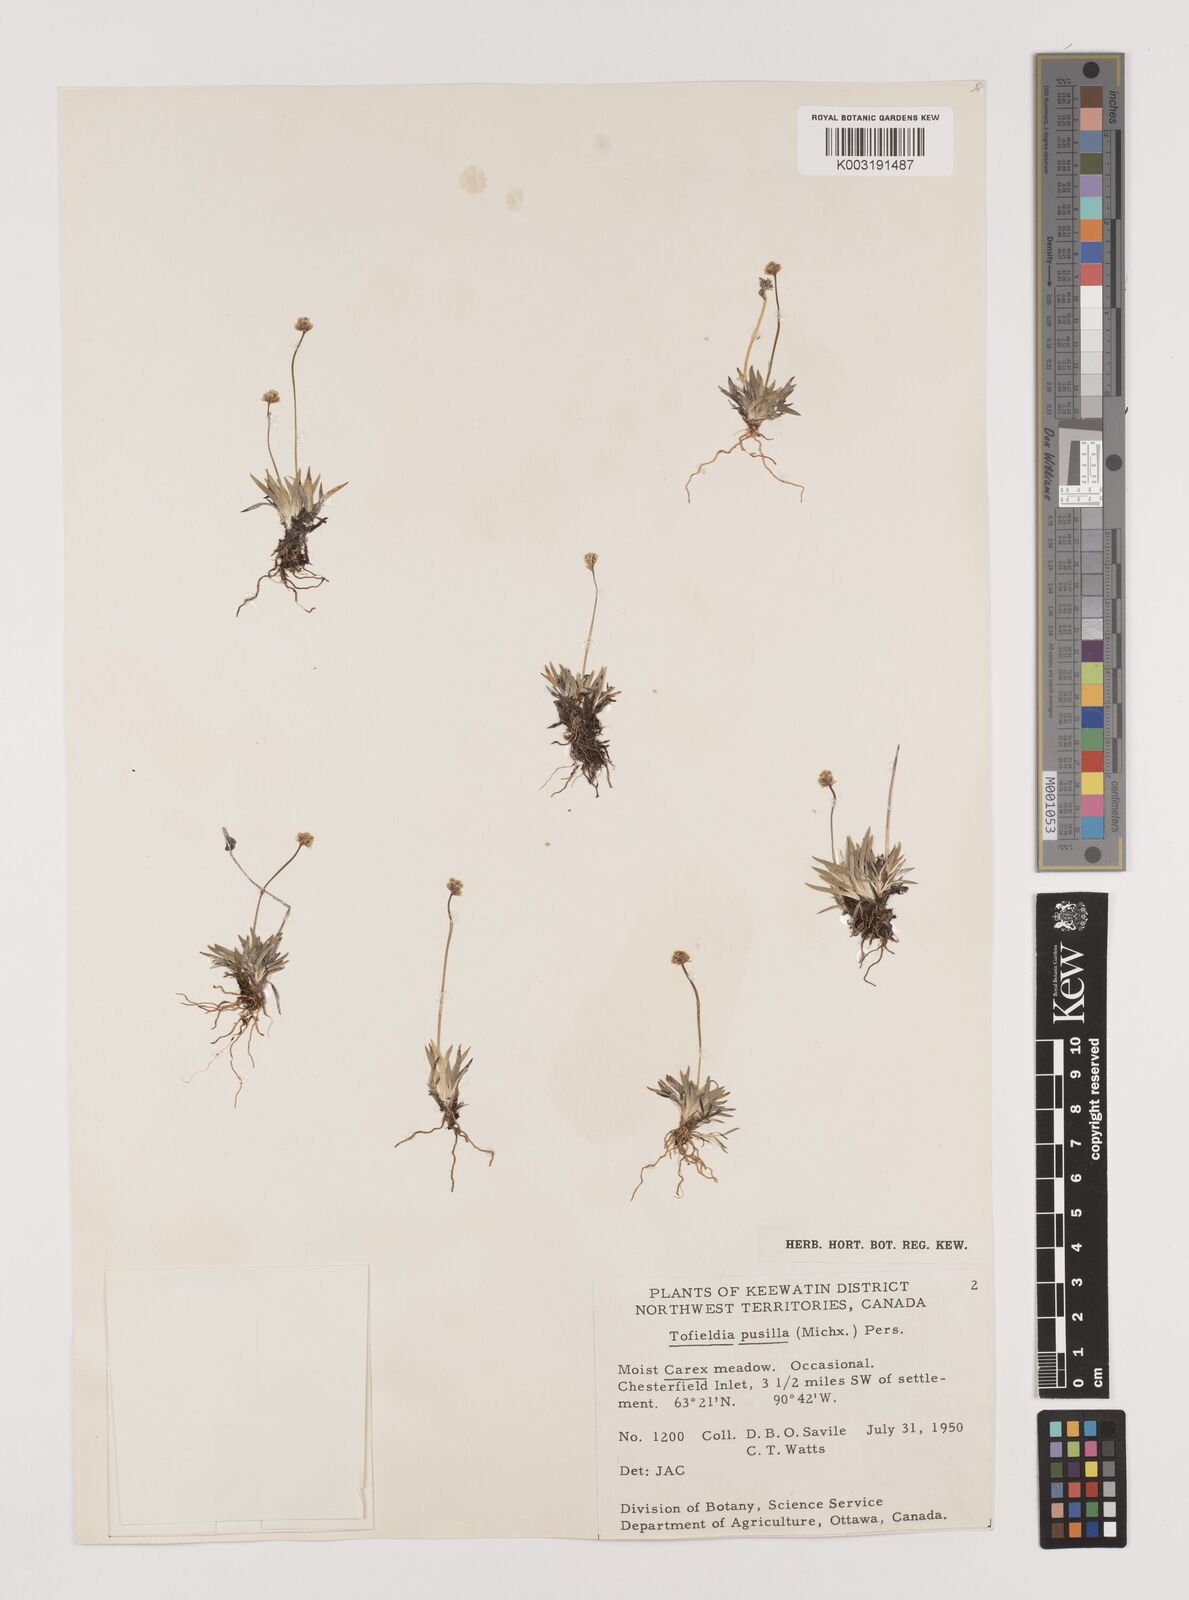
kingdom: Plantae
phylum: Tracheophyta
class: Liliopsida
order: Alismatales
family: Tofieldiaceae
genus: Tofieldia
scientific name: Tofieldia pusilla
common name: Scottish false asphodel
